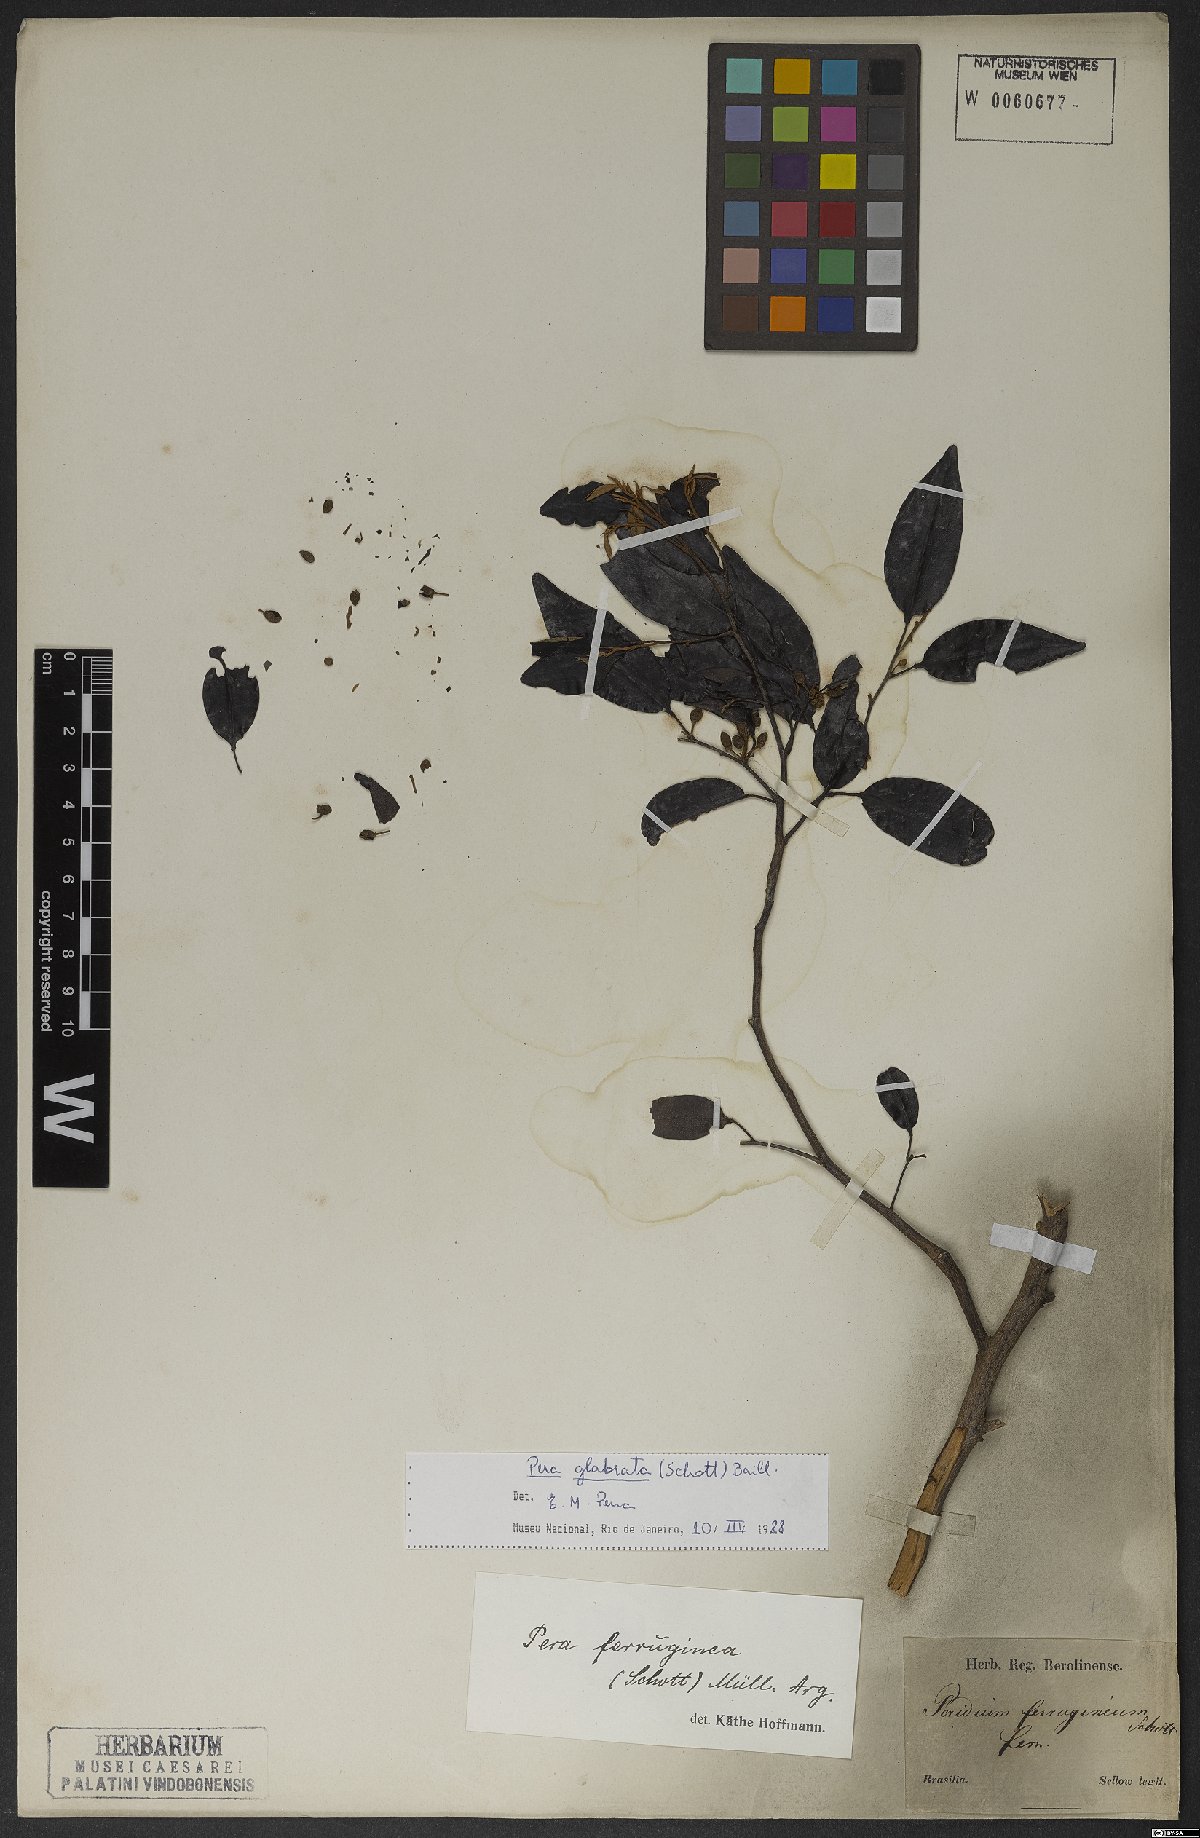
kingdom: Plantae
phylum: Tracheophyta
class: Magnoliopsida
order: Malpighiales
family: Peraceae
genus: Pera
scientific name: Pera glabrata
